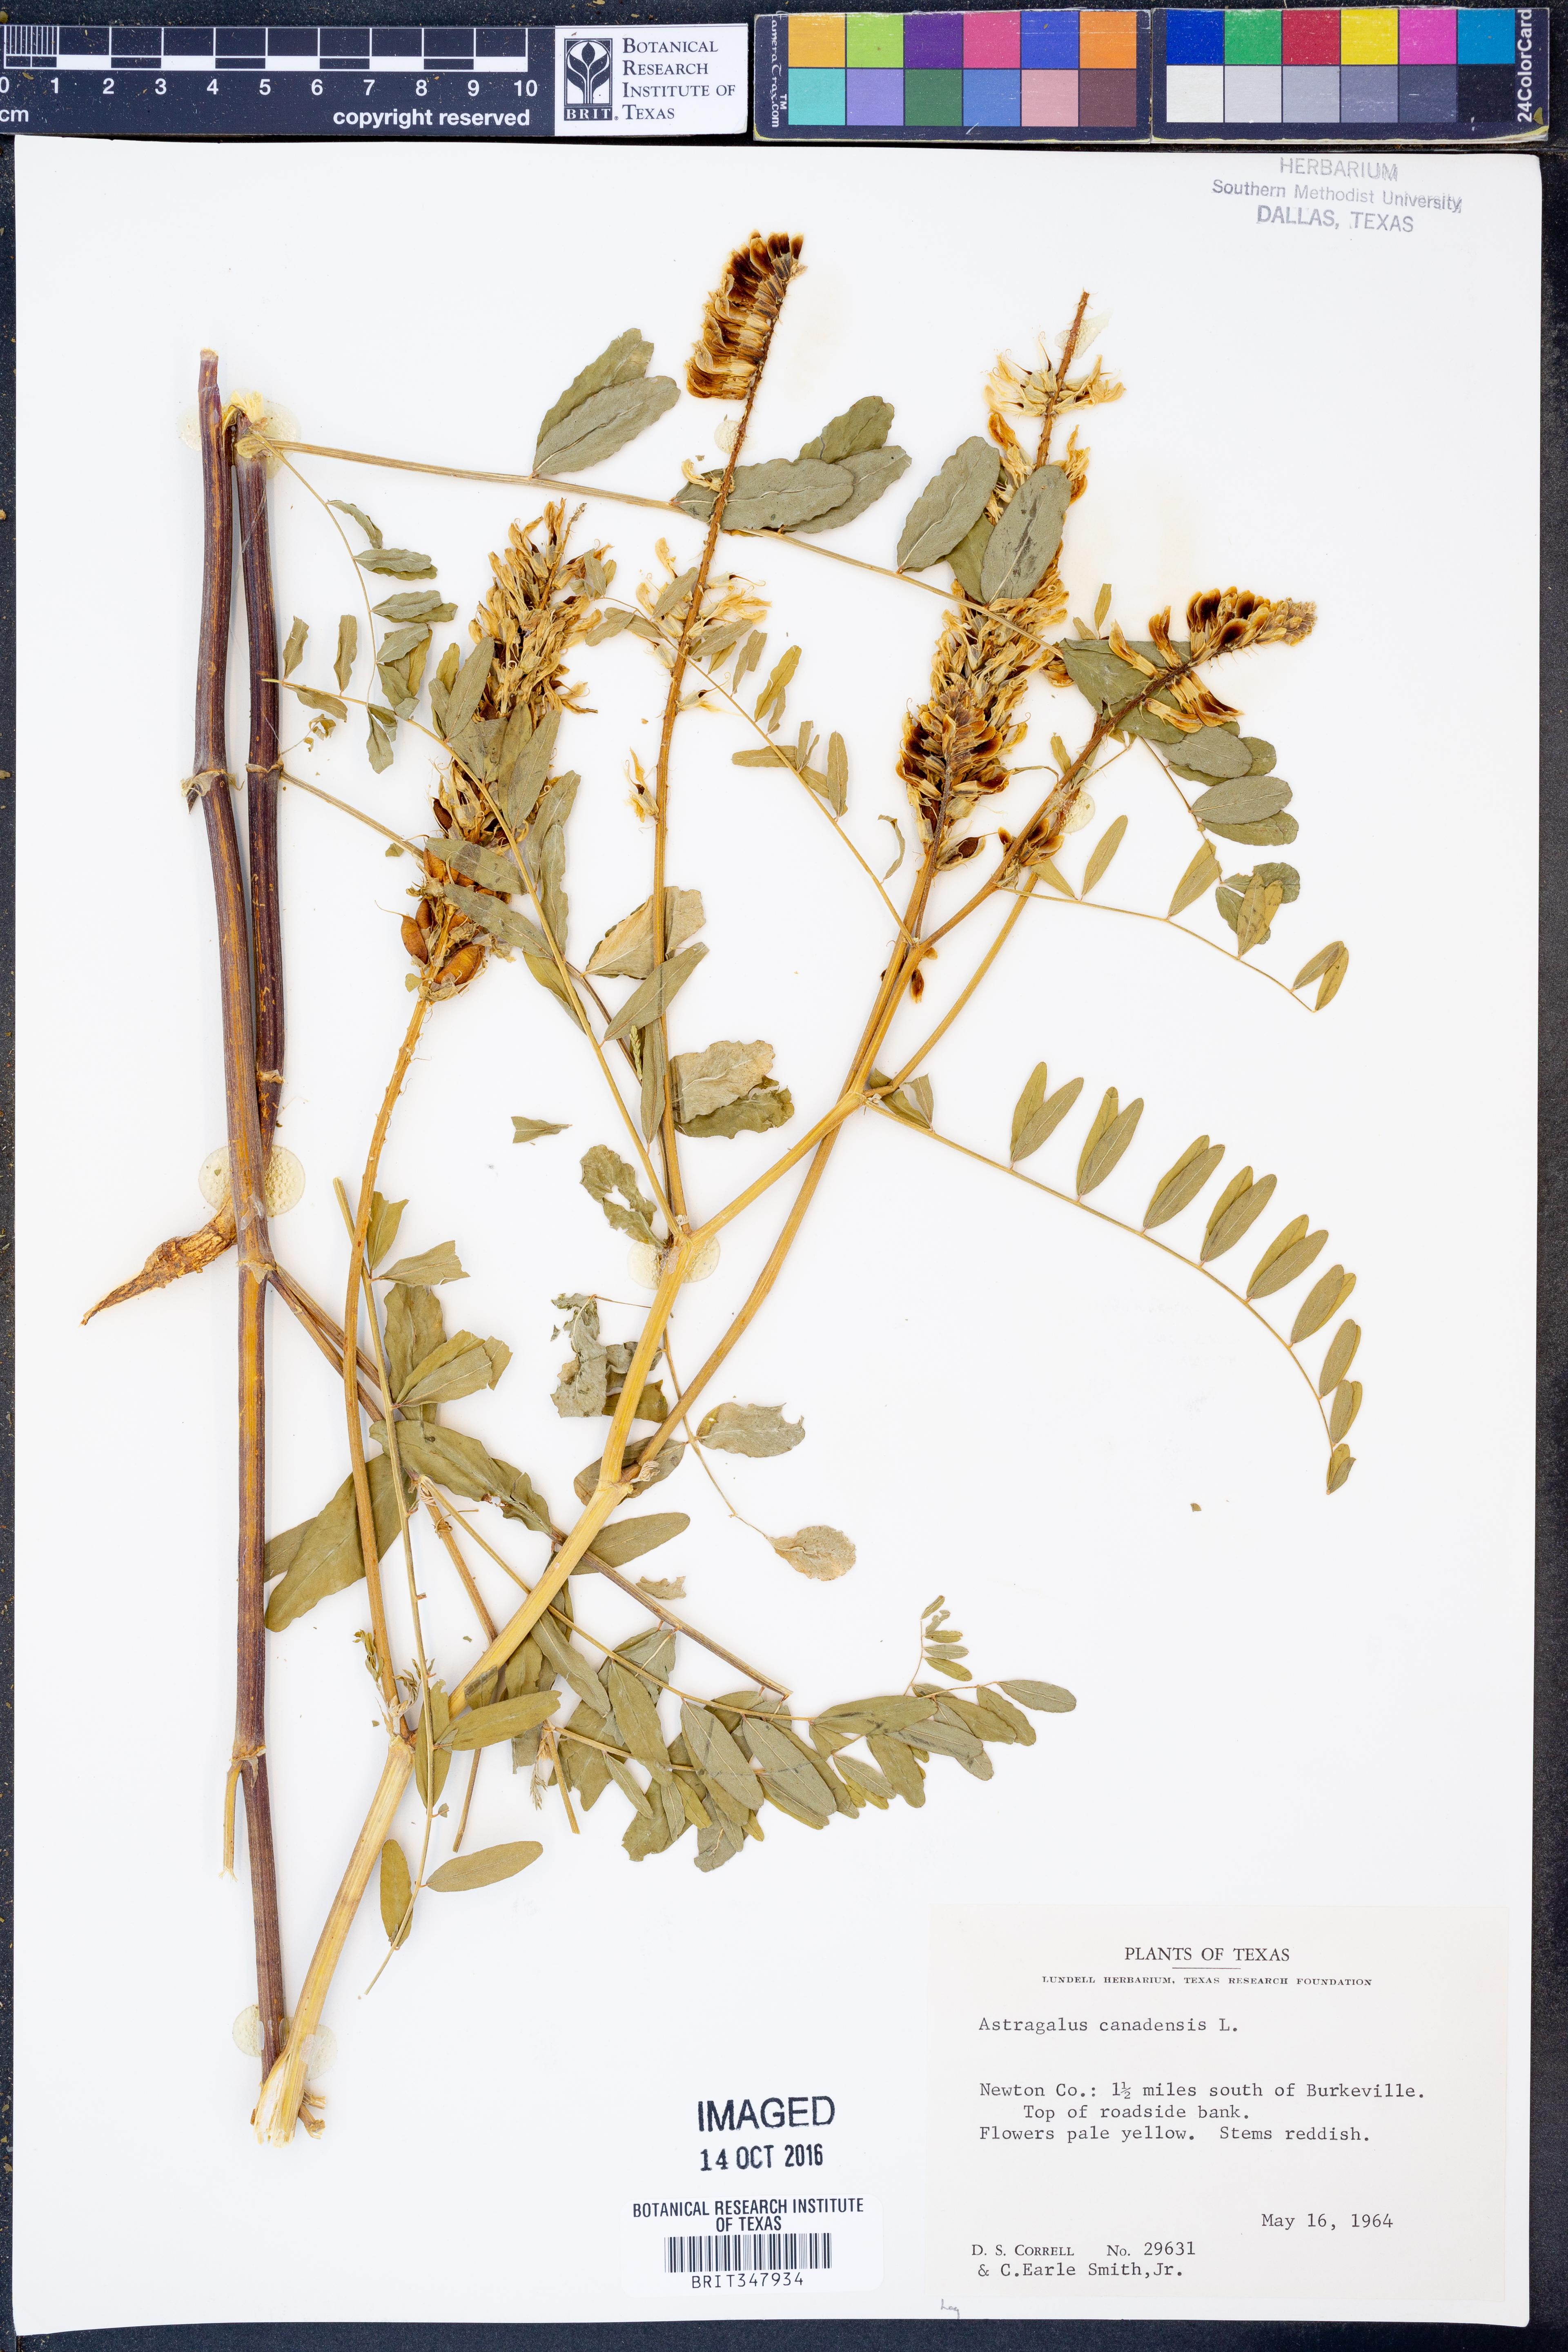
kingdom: Plantae
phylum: Tracheophyta
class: Magnoliopsida
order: Fabales
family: Fabaceae
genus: Astragalus
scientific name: Astragalus canadensis
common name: Canada milk-vetch
